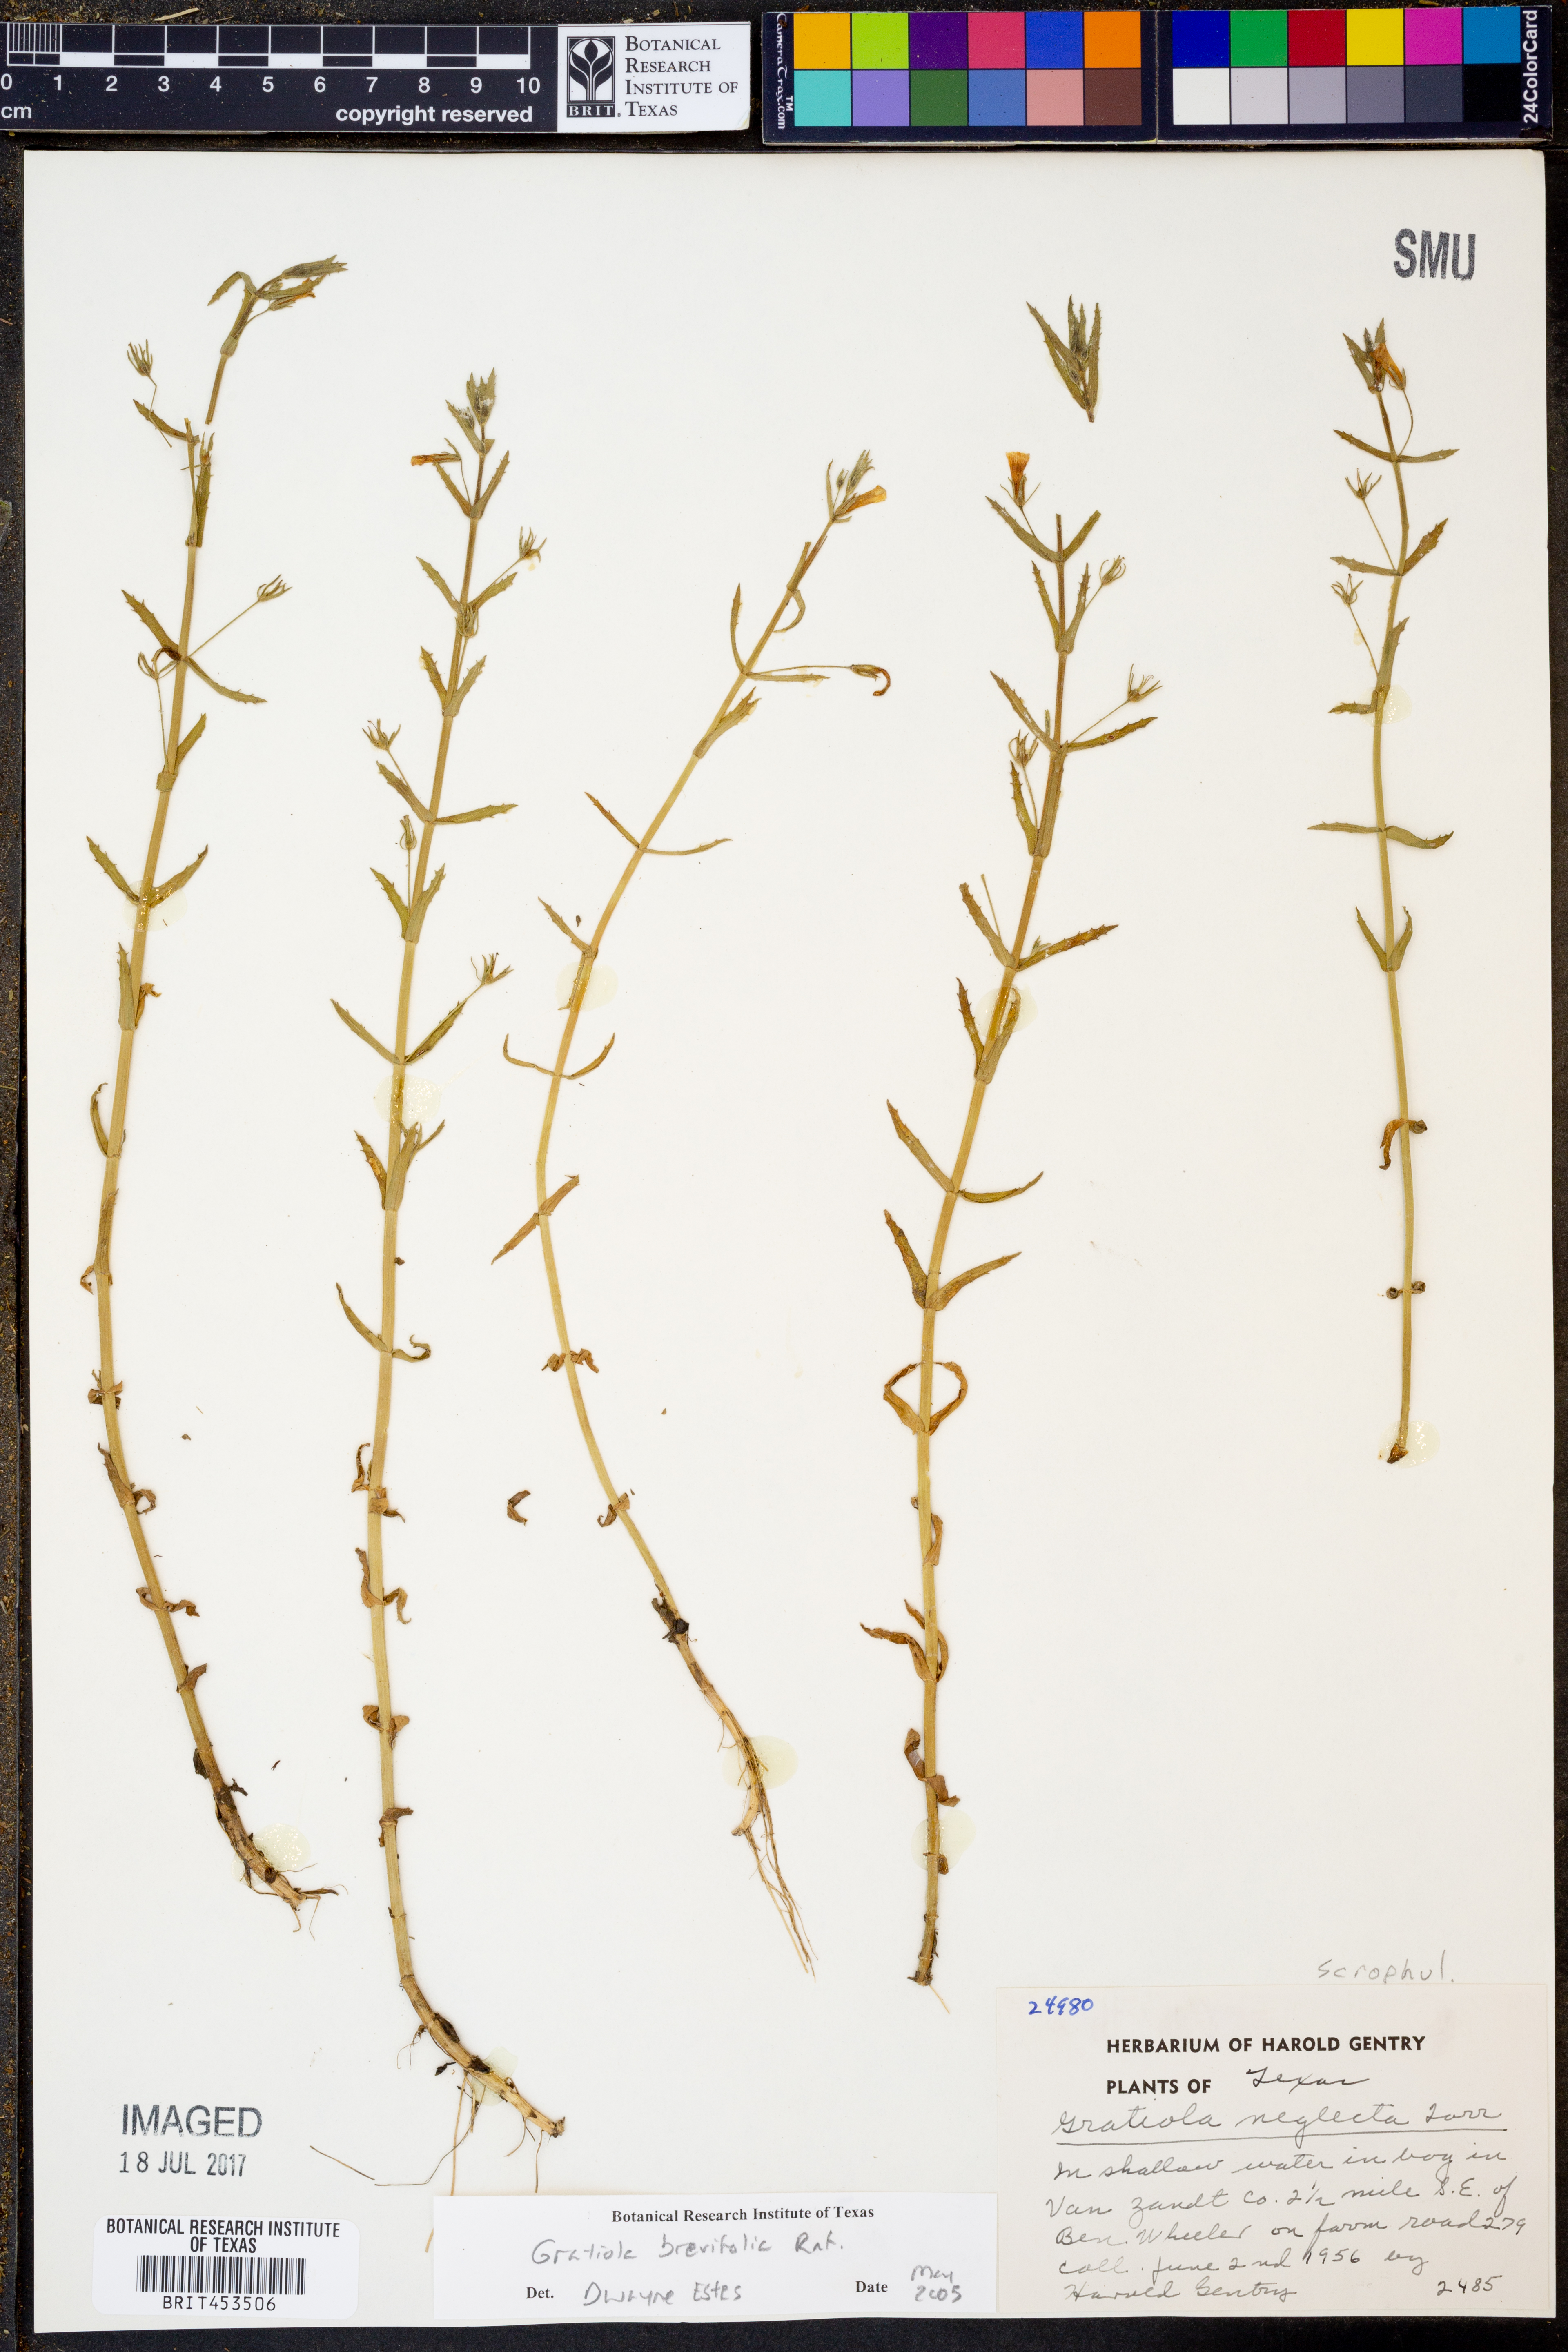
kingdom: Plantae
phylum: Tracheophyta
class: Magnoliopsida
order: Lamiales
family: Plantaginaceae
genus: Gratiola
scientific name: Gratiola brevifolia
